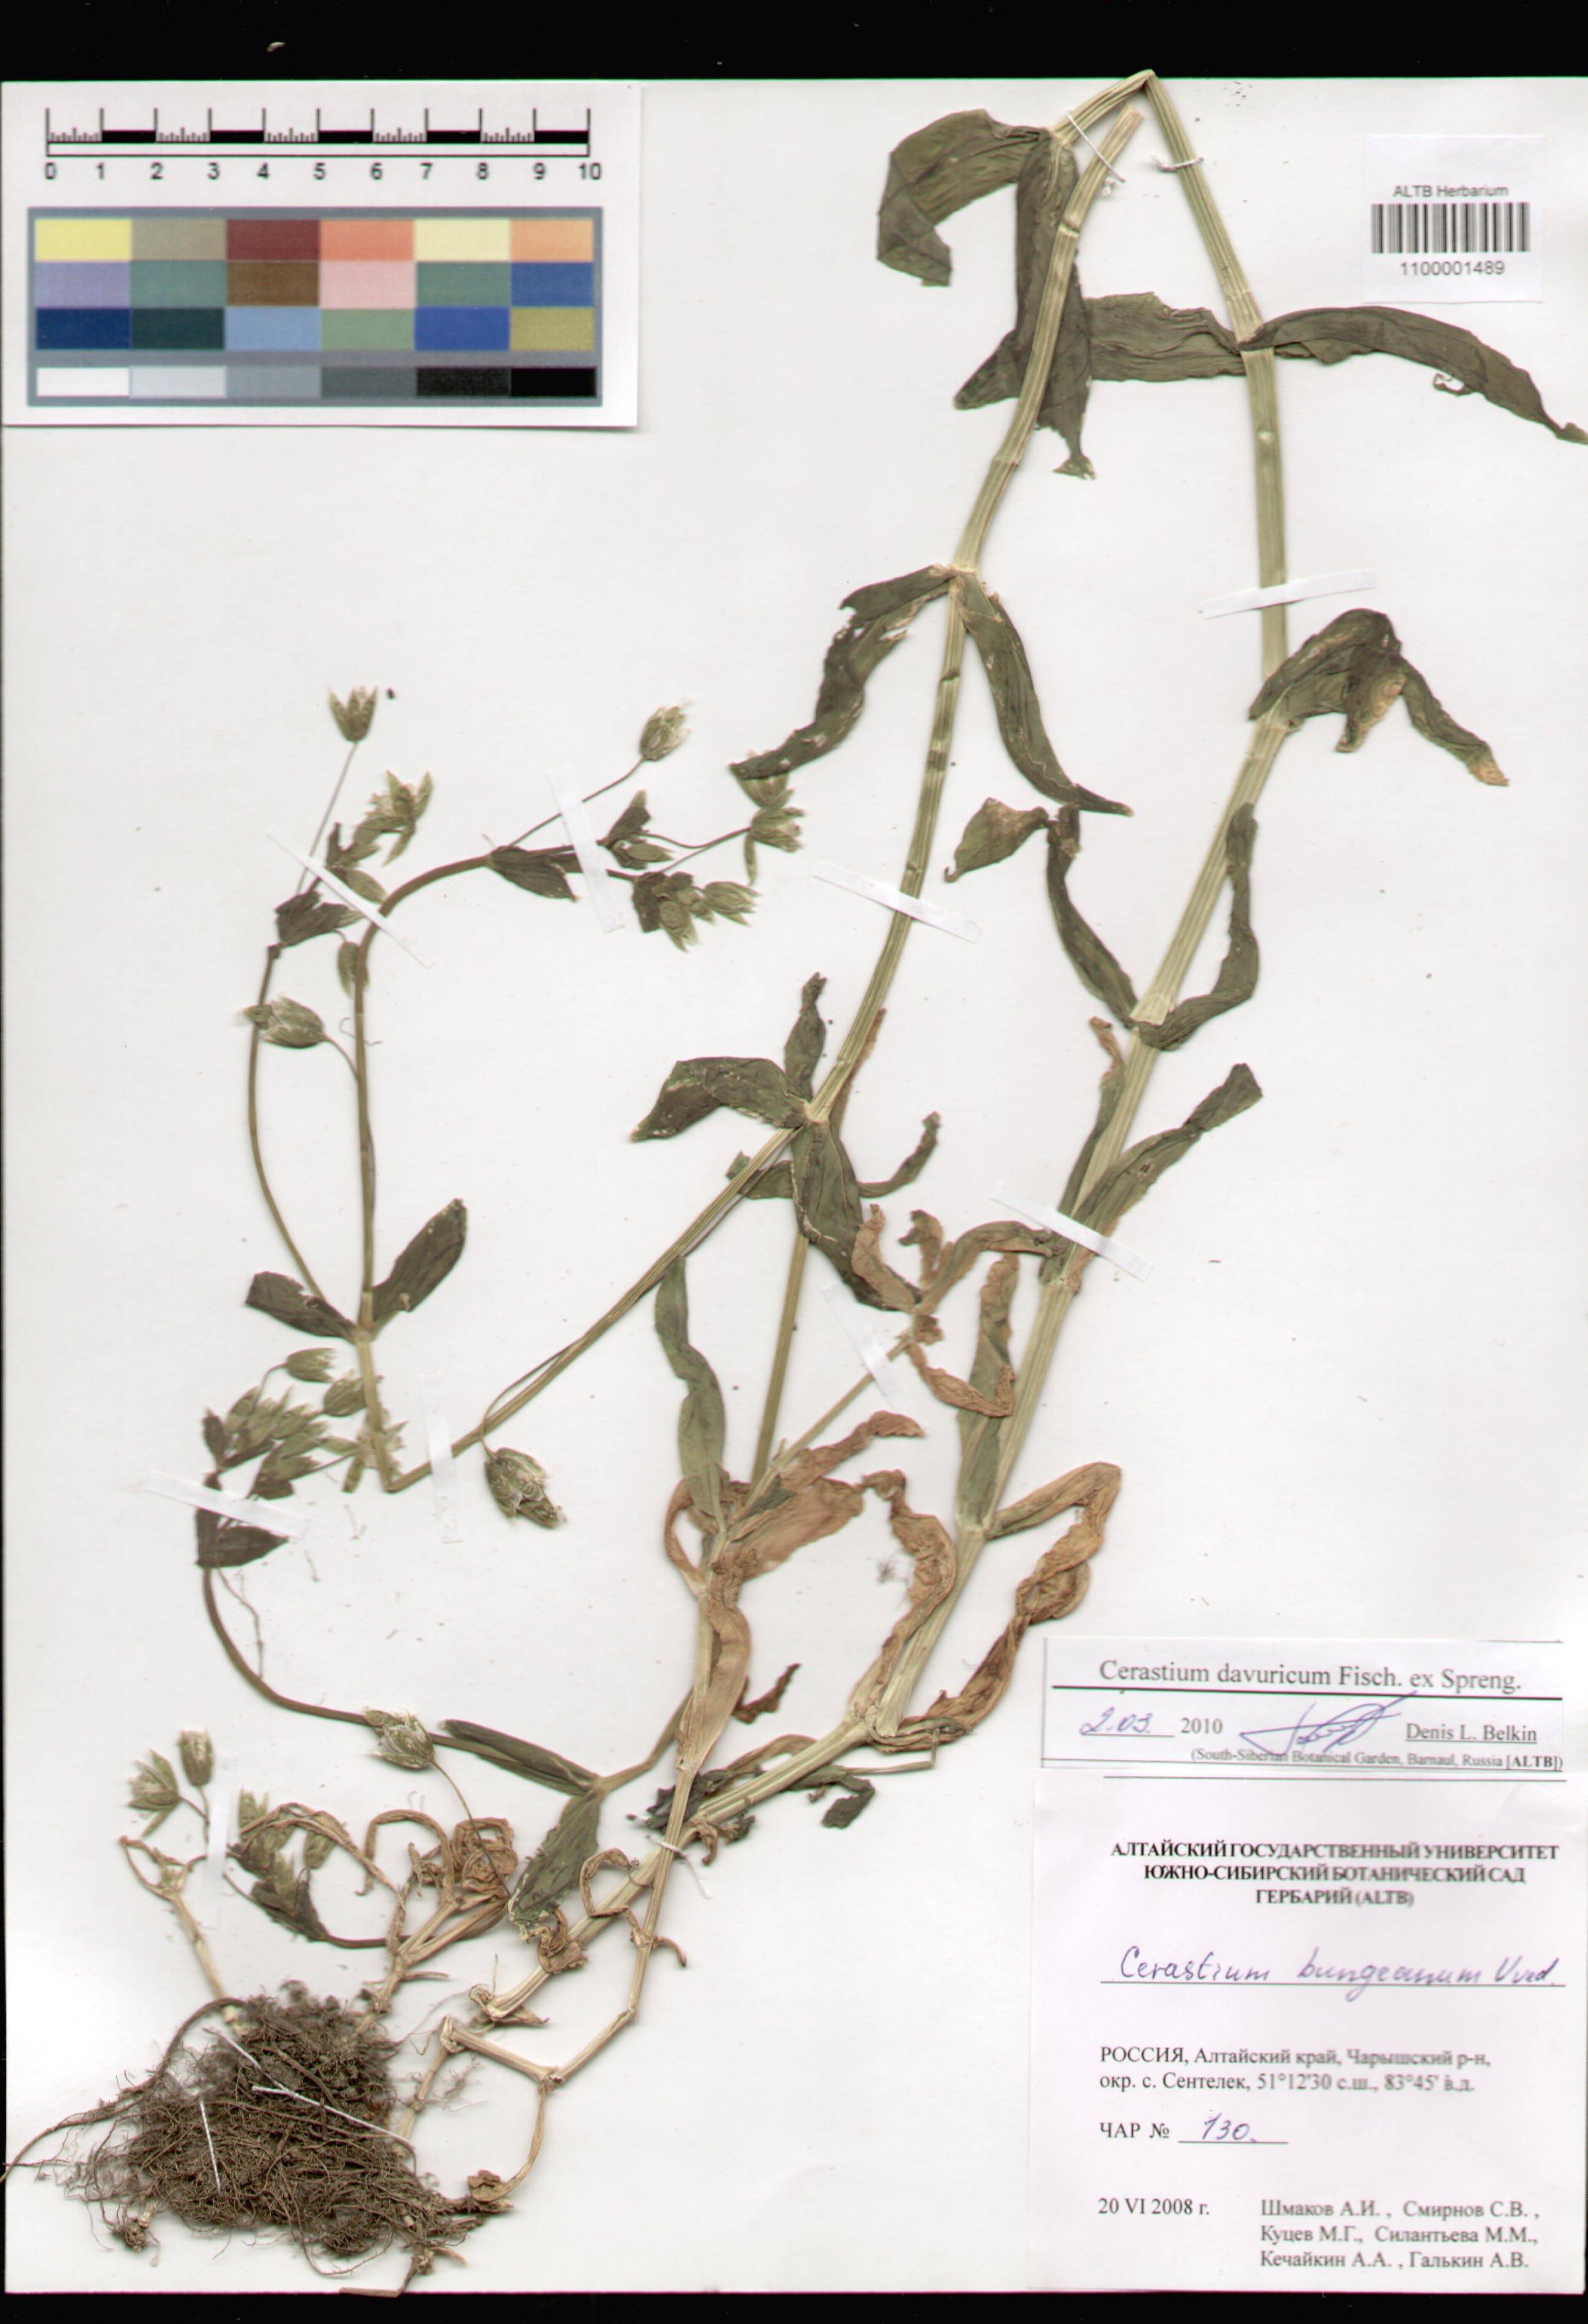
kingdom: Plantae
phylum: Tracheophyta
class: Magnoliopsida
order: Caryophyllales
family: Caryophyllaceae
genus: Dichodon
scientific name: Dichodon davuricum
